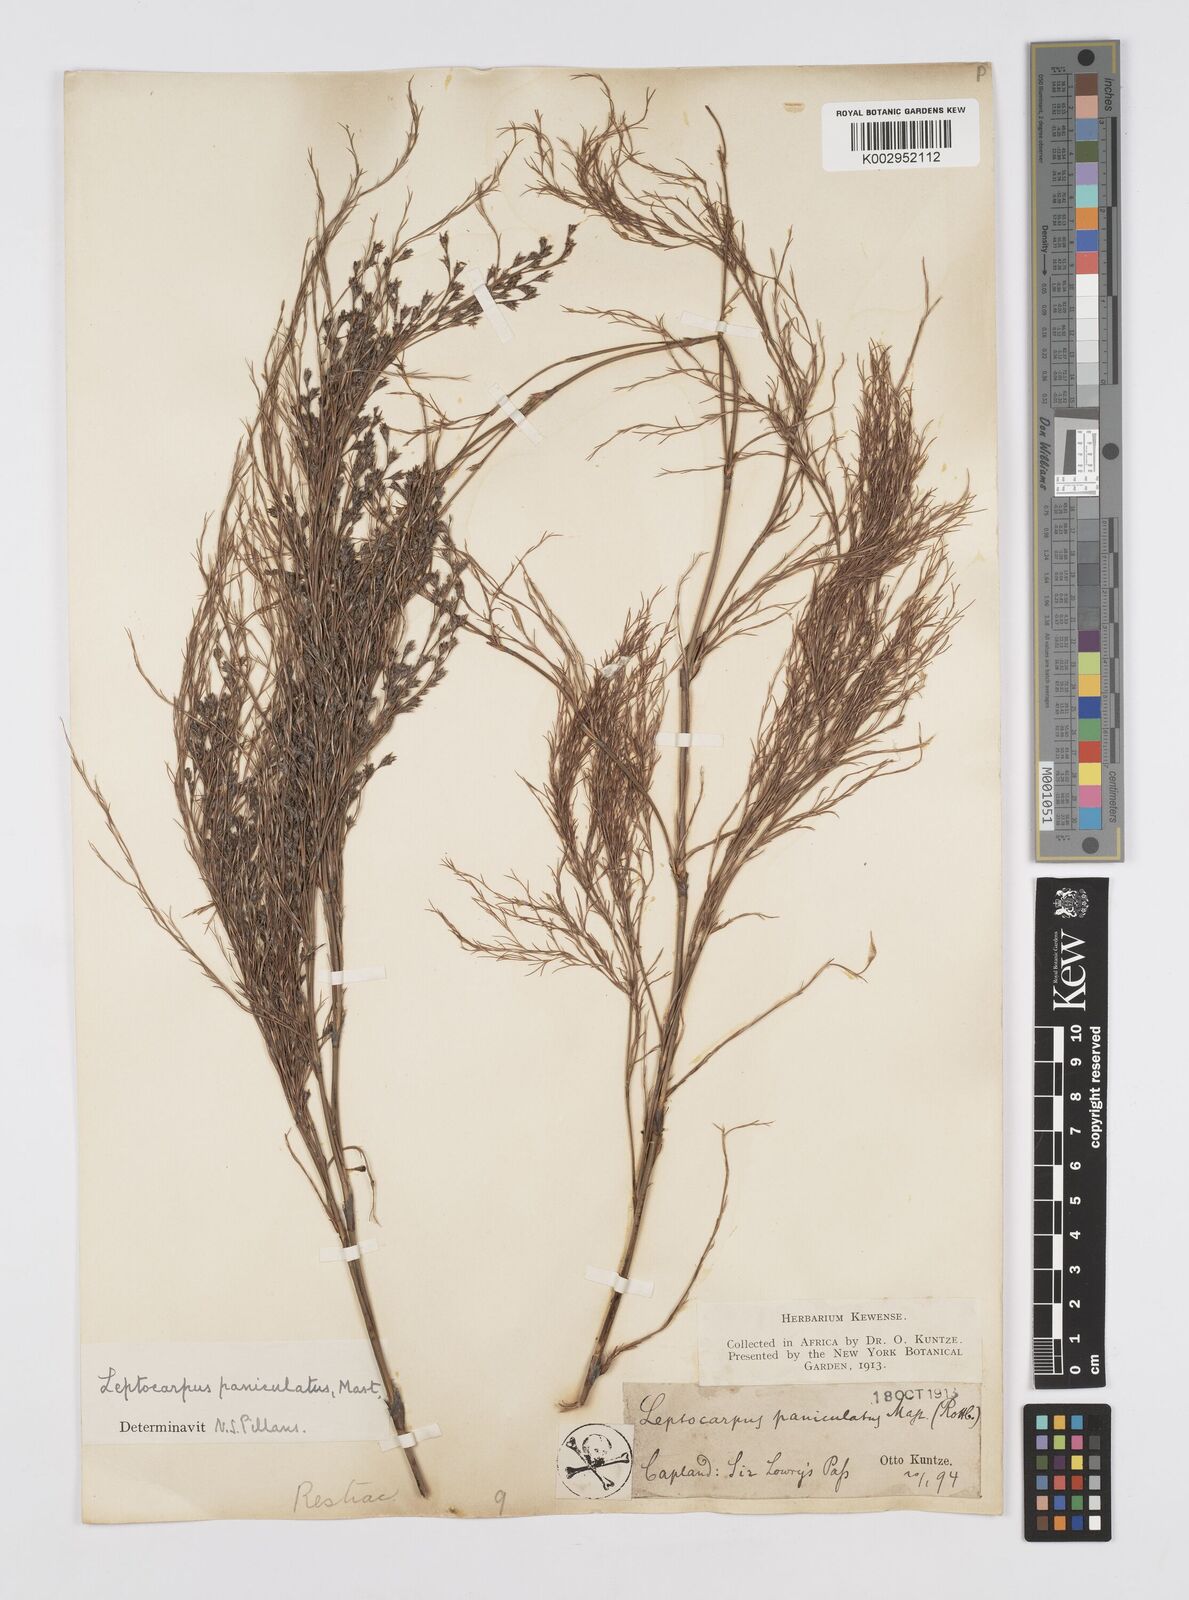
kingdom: Plantae
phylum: Tracheophyta
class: Liliopsida
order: Poales
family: Restionaceae
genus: Restio
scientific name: Restio paniculatus
